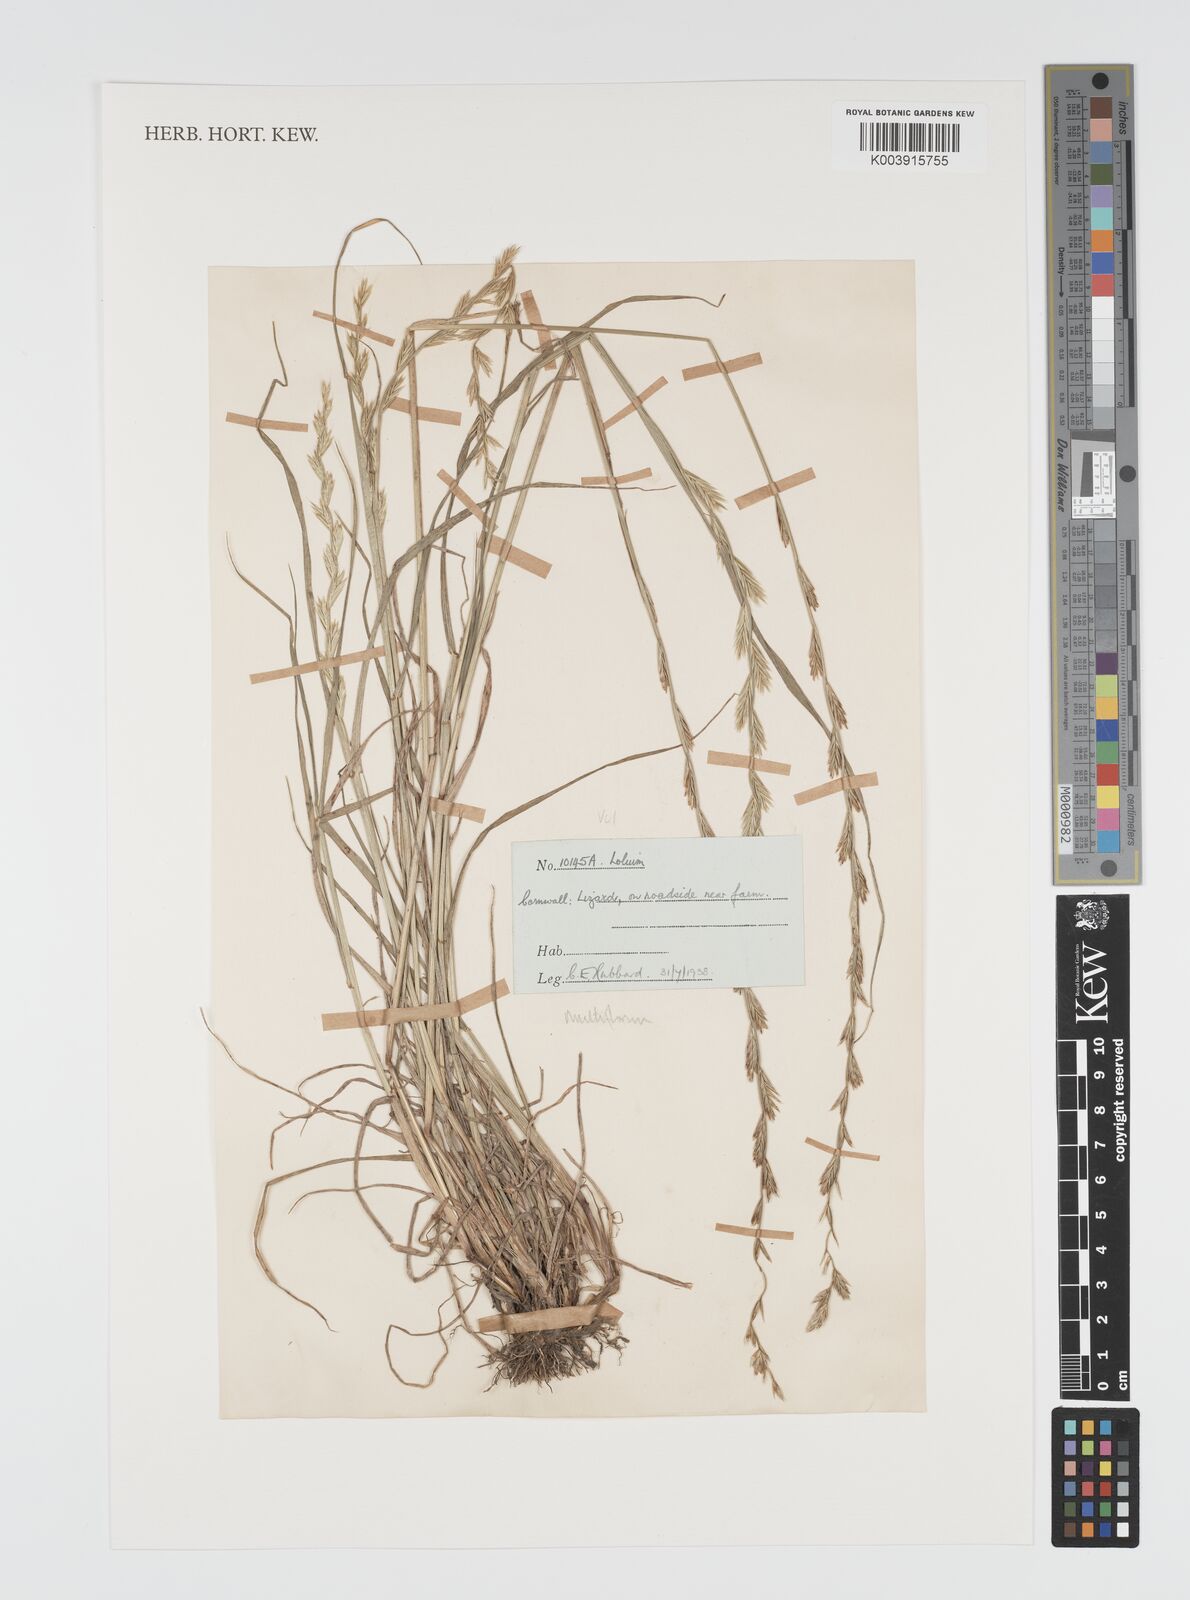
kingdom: Plantae
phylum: Tracheophyta
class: Liliopsida
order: Poales
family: Poaceae
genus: Lolium
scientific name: Lolium multiflorum
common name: Annual ryegrass
